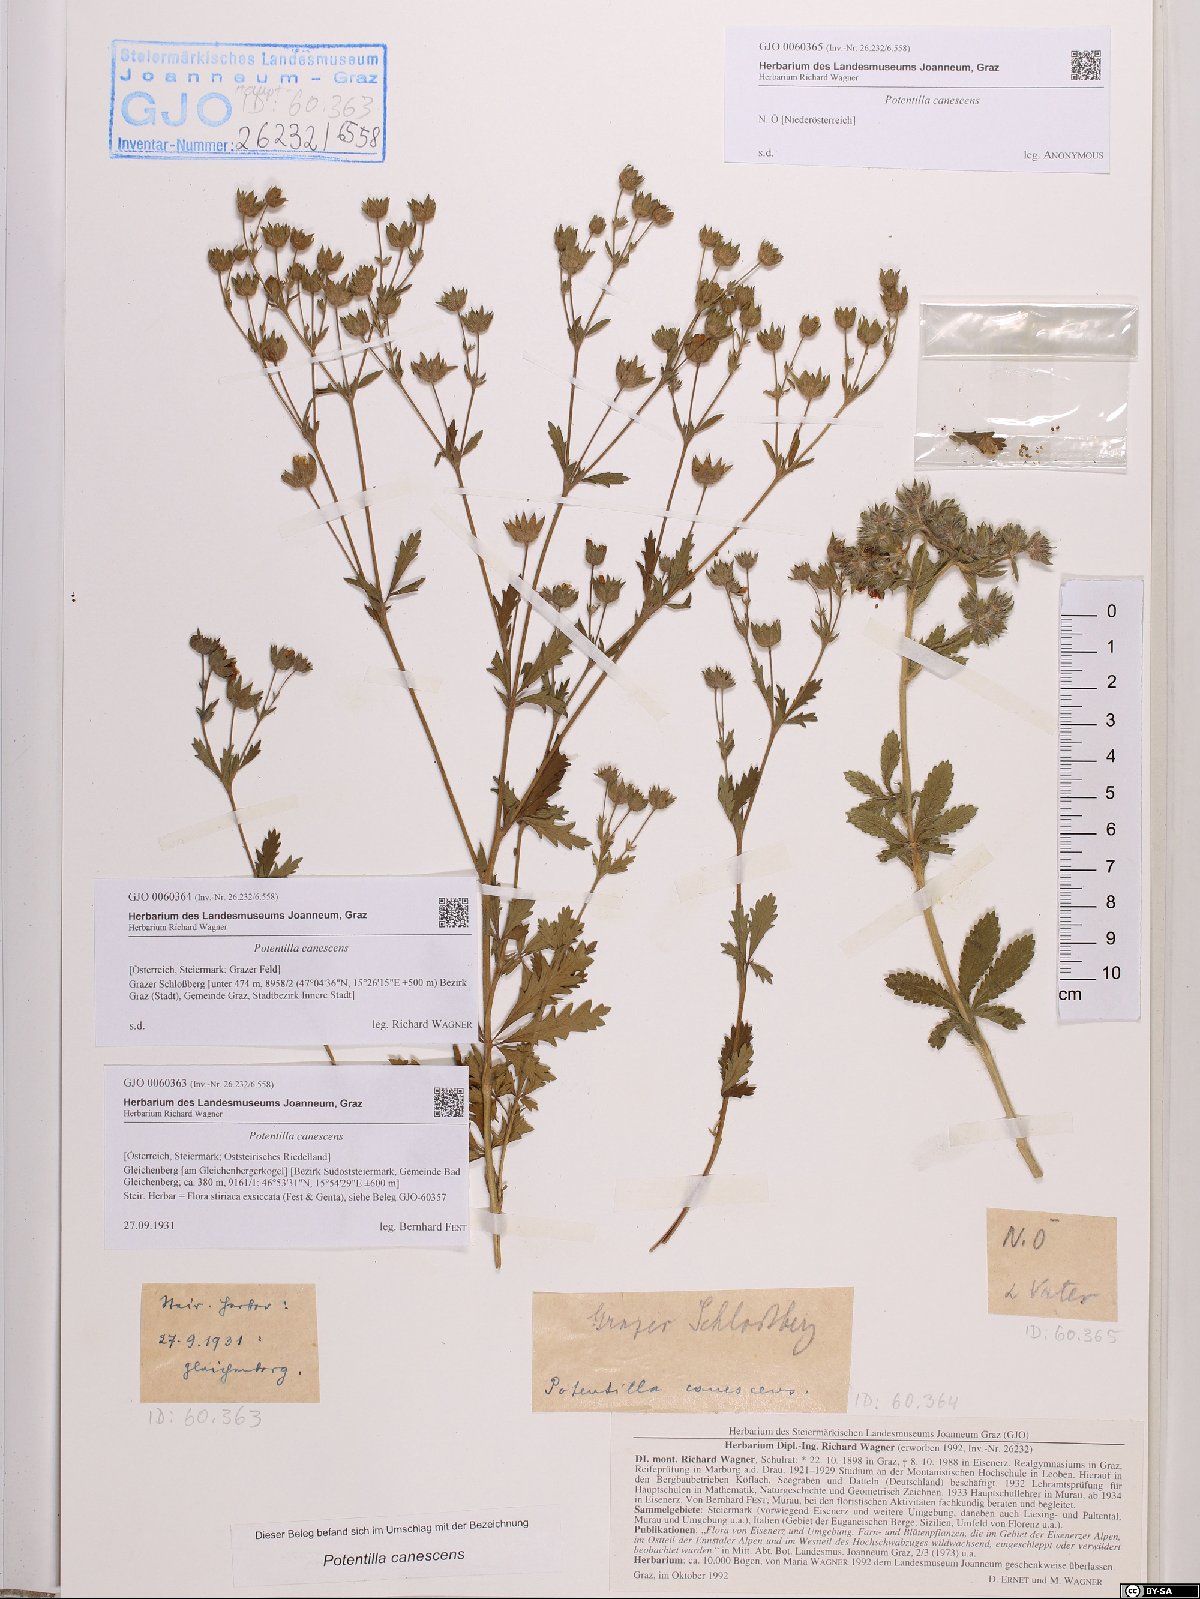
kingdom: Plantae
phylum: Tracheophyta
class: Magnoliopsida
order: Rosales
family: Rosaceae
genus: Potentilla
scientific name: Potentilla inclinata
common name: Grey cinquefoil
